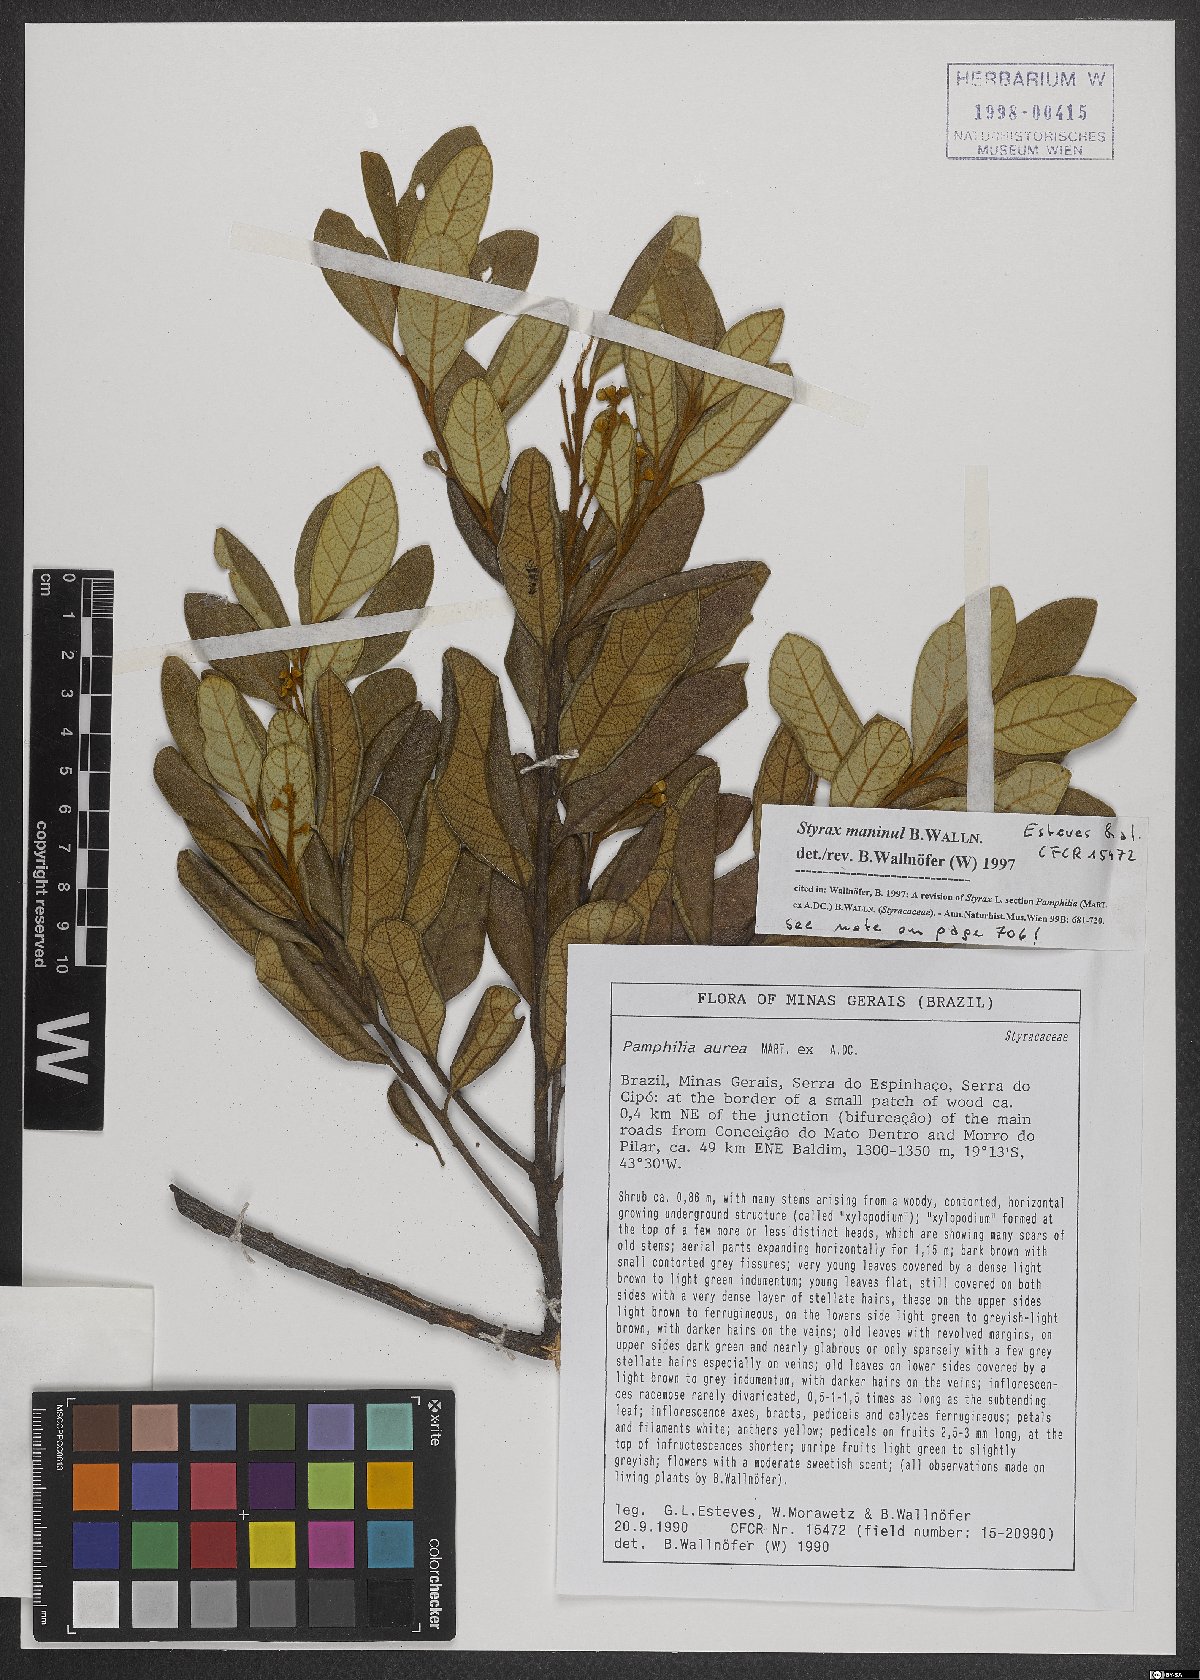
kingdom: Plantae
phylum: Tracheophyta
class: Magnoliopsida
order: Ericales
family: Styracaceae
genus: Styrax
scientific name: Styrax maninul
